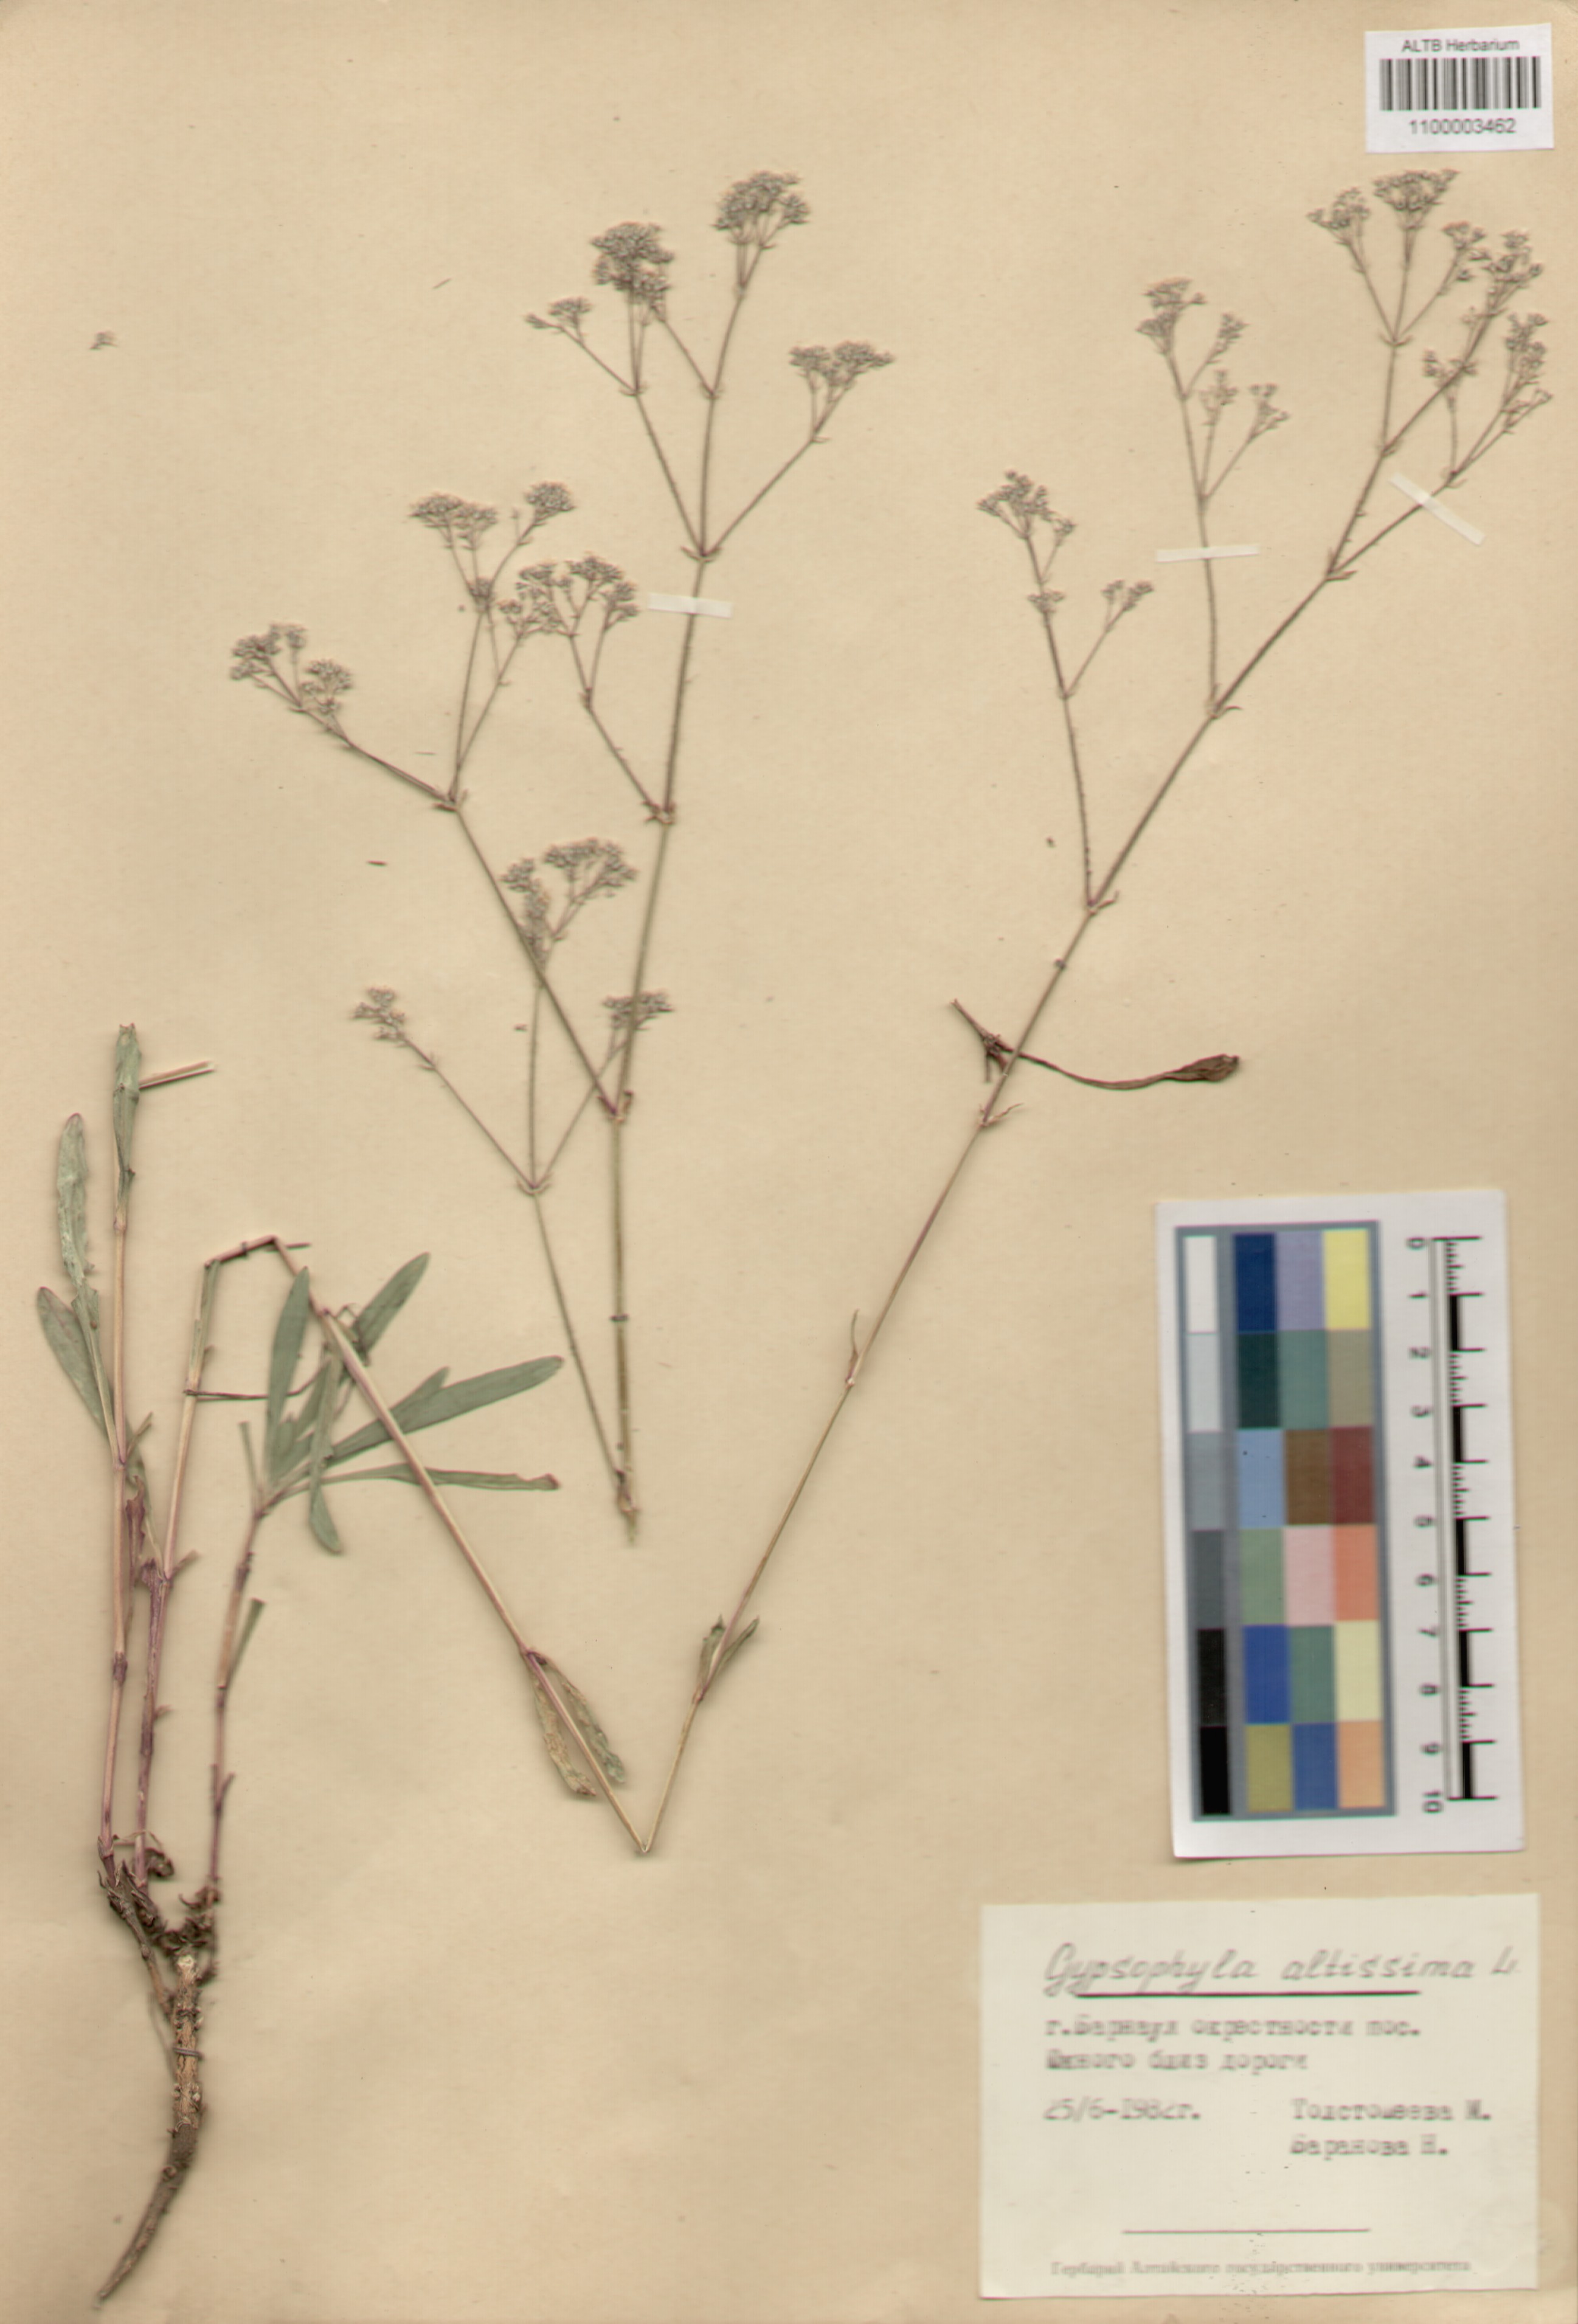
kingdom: Plantae
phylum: Tracheophyta
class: Magnoliopsida
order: Caryophyllales
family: Caryophyllaceae
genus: Gypsophila
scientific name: Gypsophila altissima
